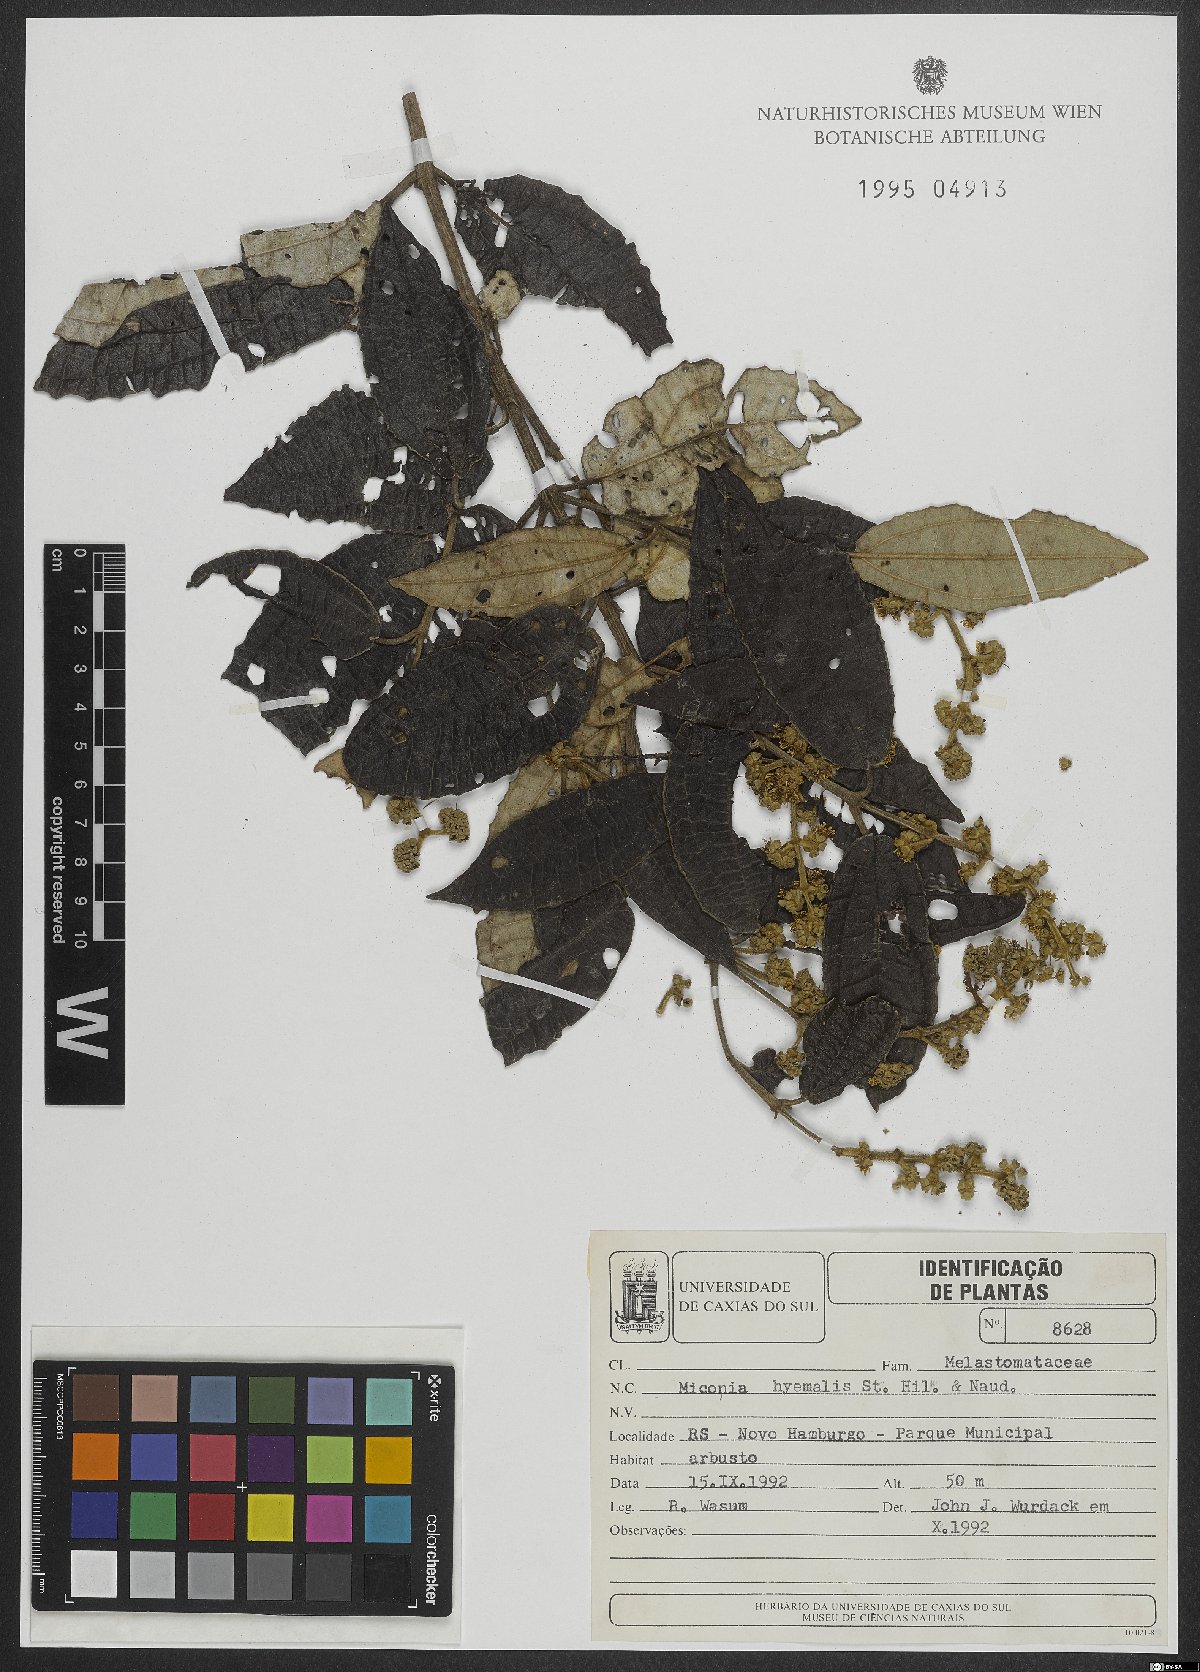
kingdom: Plantae
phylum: Tracheophyta
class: Magnoliopsida
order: Myrtales
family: Melastomataceae
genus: Miconia
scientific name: Miconia hyemalis
